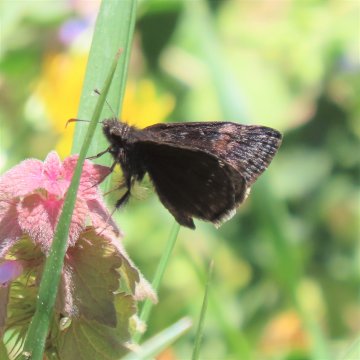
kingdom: Animalia
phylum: Arthropoda
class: Insecta
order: Lepidoptera
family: Hesperiidae
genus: Gesta
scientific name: Gesta
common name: Wild Indigo Duskywing
